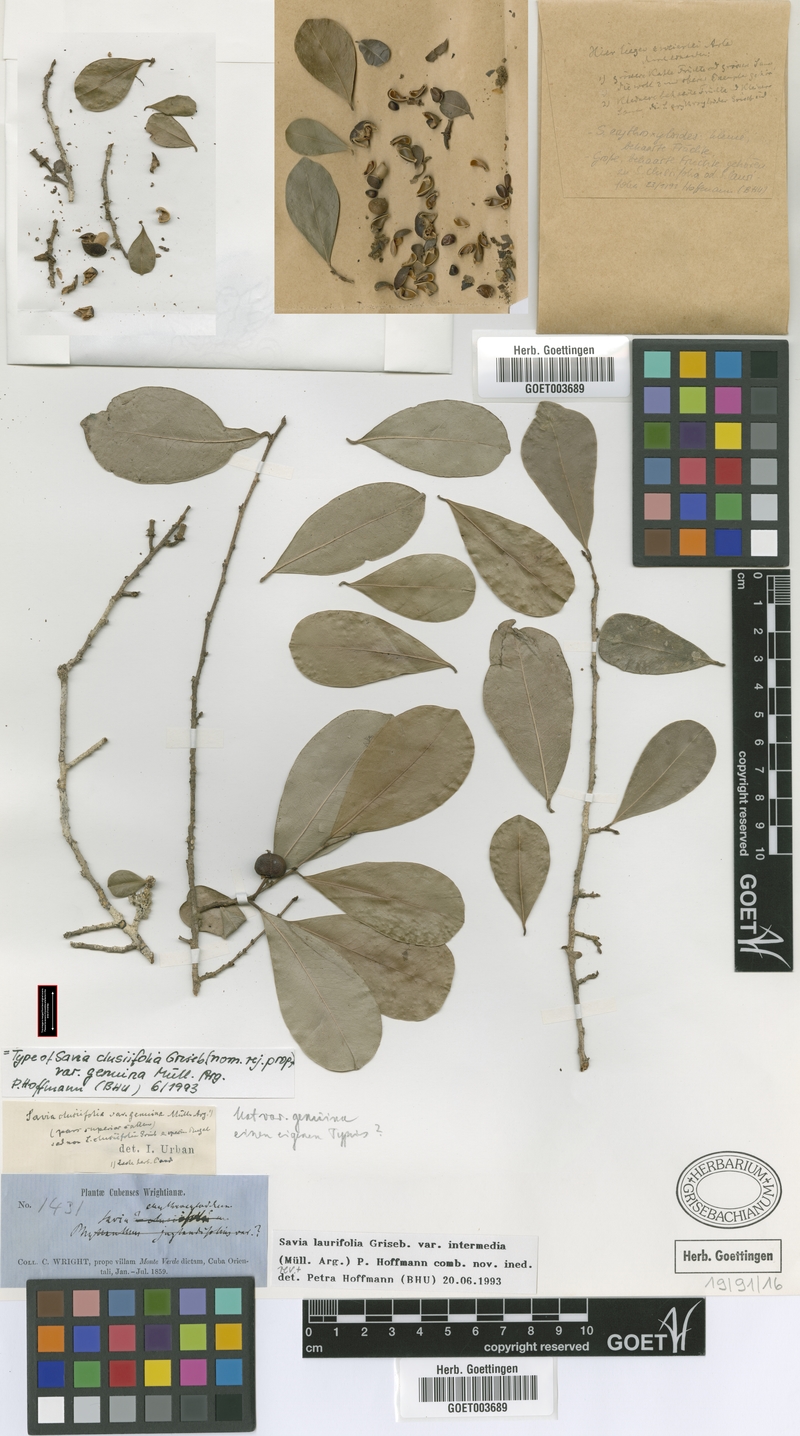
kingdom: Plantae
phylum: Tracheophyta
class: Magnoliopsida
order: Malpighiales
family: Phyllanthaceae
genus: Heterosavia
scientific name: Heterosavia laurifolia
